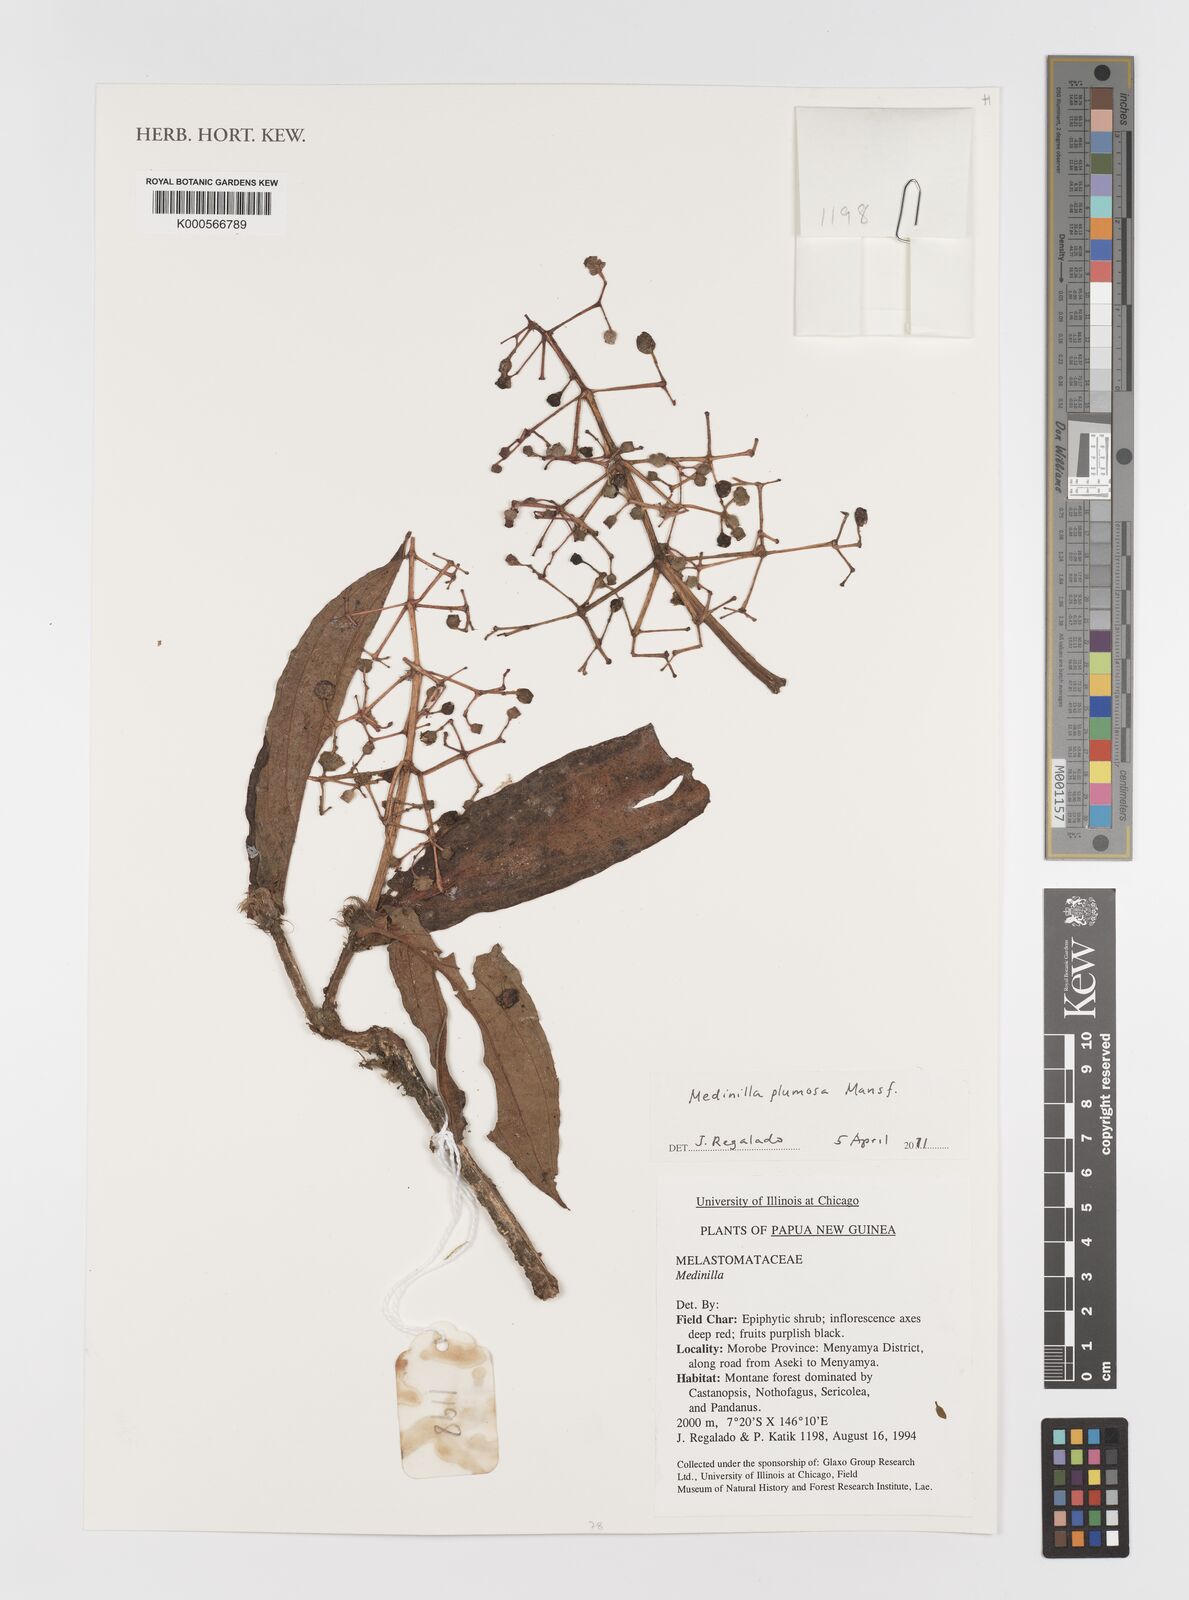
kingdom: Plantae
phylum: Tracheophyta
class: Magnoliopsida
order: Myrtales
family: Melastomataceae
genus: Medinilla
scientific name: Medinilla plumosa
